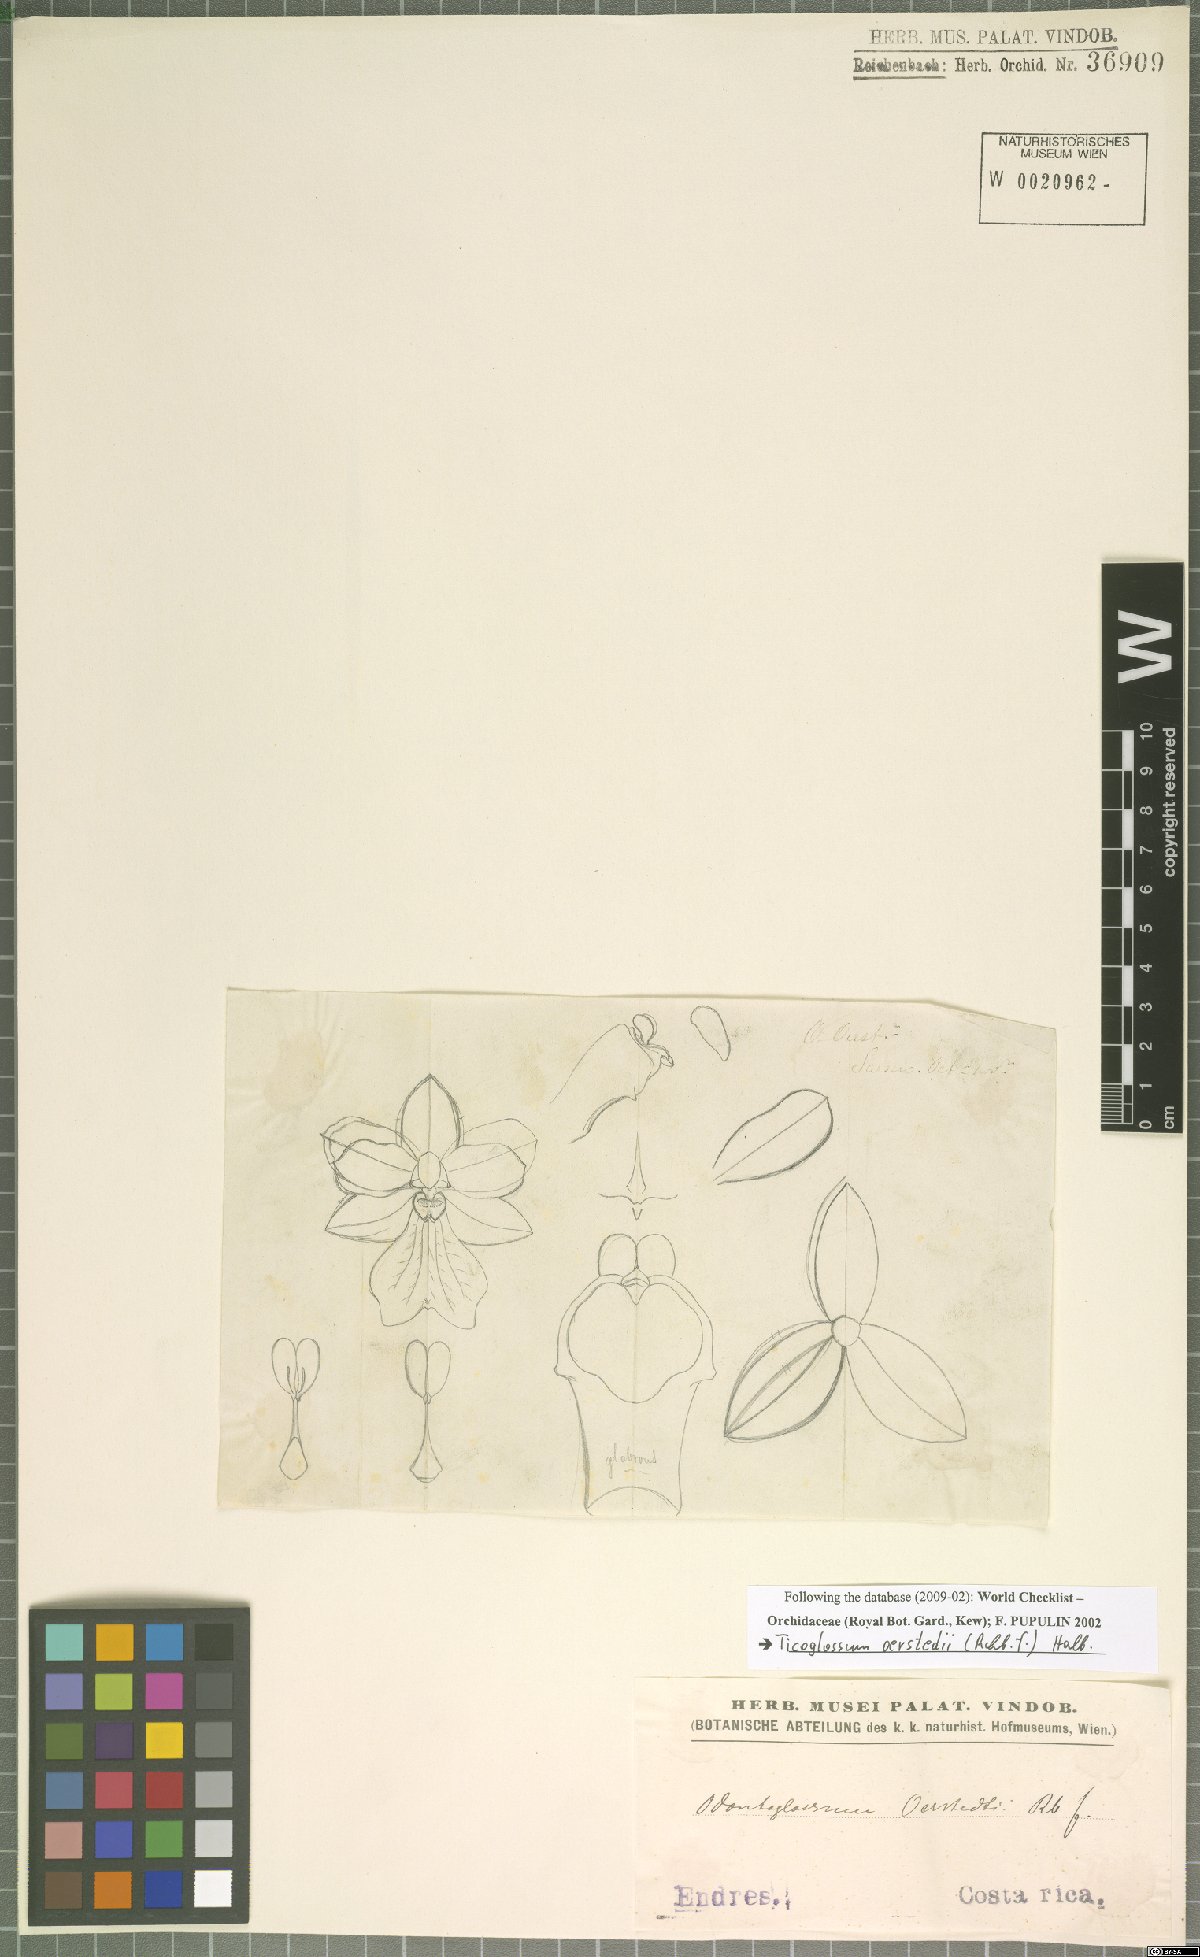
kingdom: Plantae
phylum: Tracheophyta
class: Liliopsida
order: Asparagales
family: Orchidaceae
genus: Rossioglossum
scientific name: Rossioglossum oerstedii
